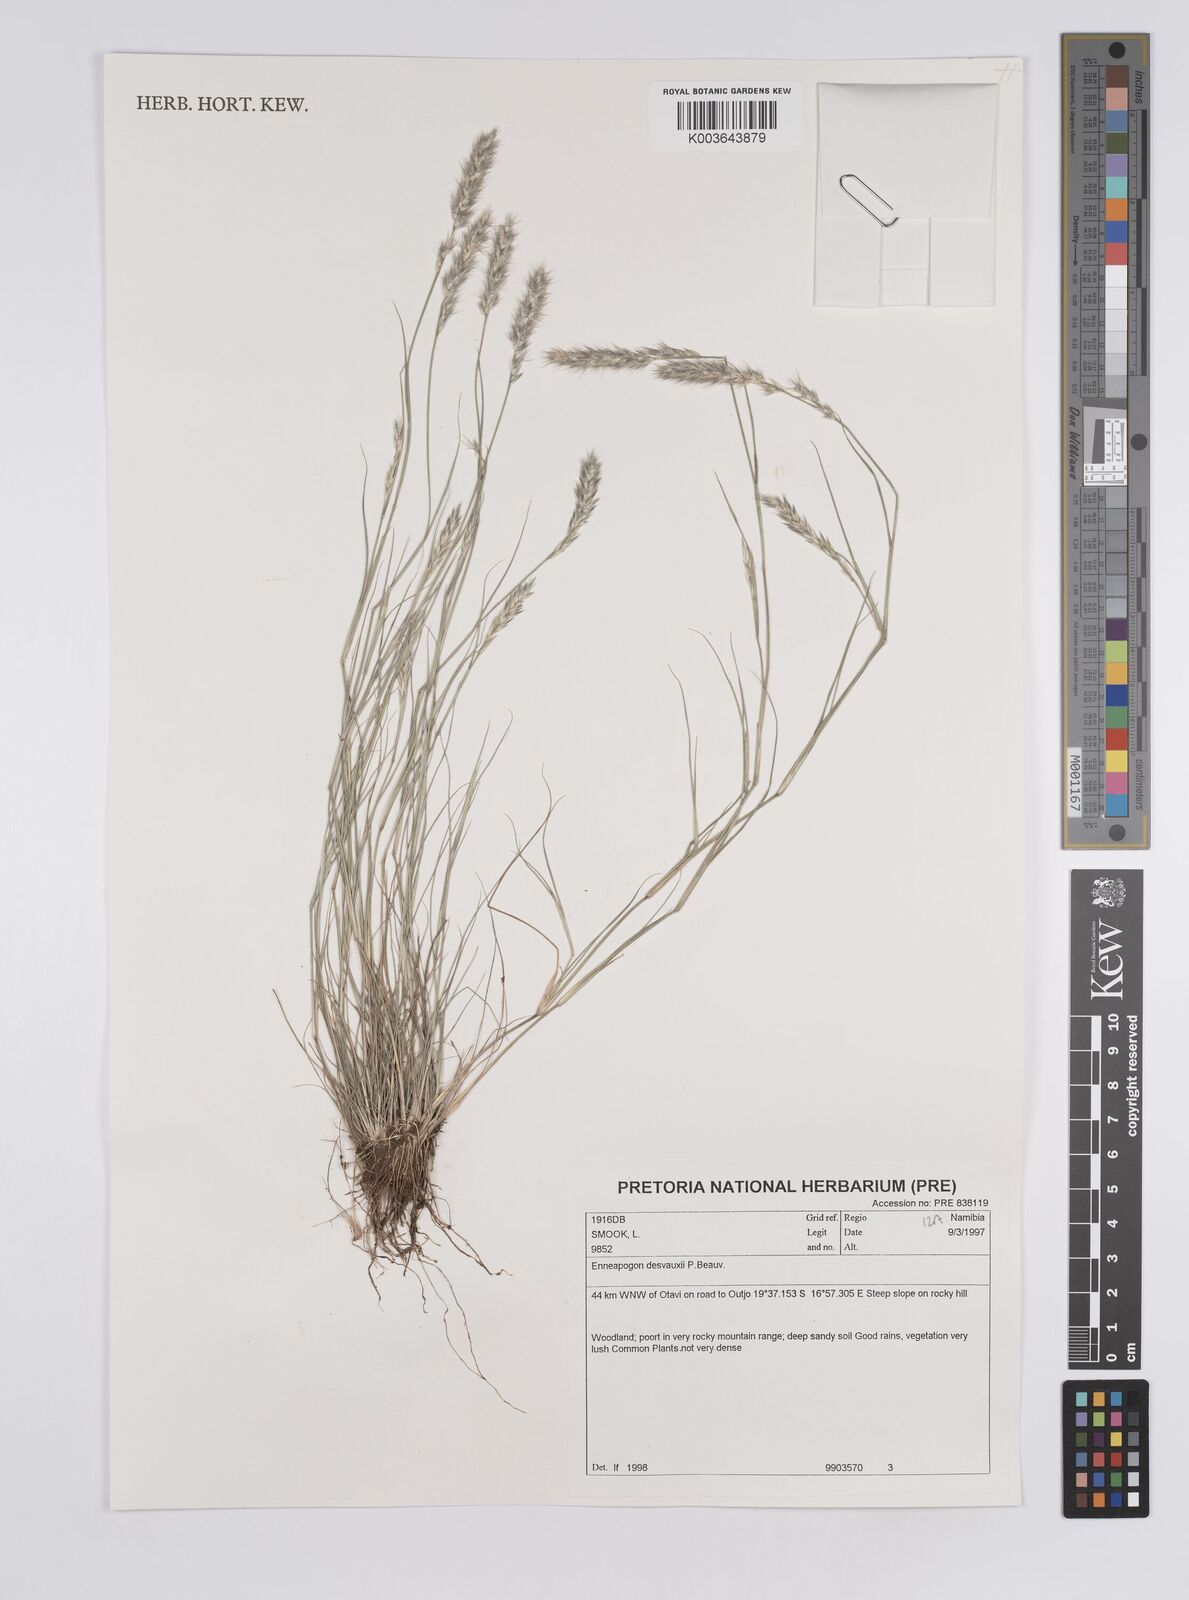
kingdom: Plantae
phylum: Tracheophyta
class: Liliopsida
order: Poales
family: Poaceae
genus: Enneapogon
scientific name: Enneapogon desvauxii
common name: Feather pappus grass
